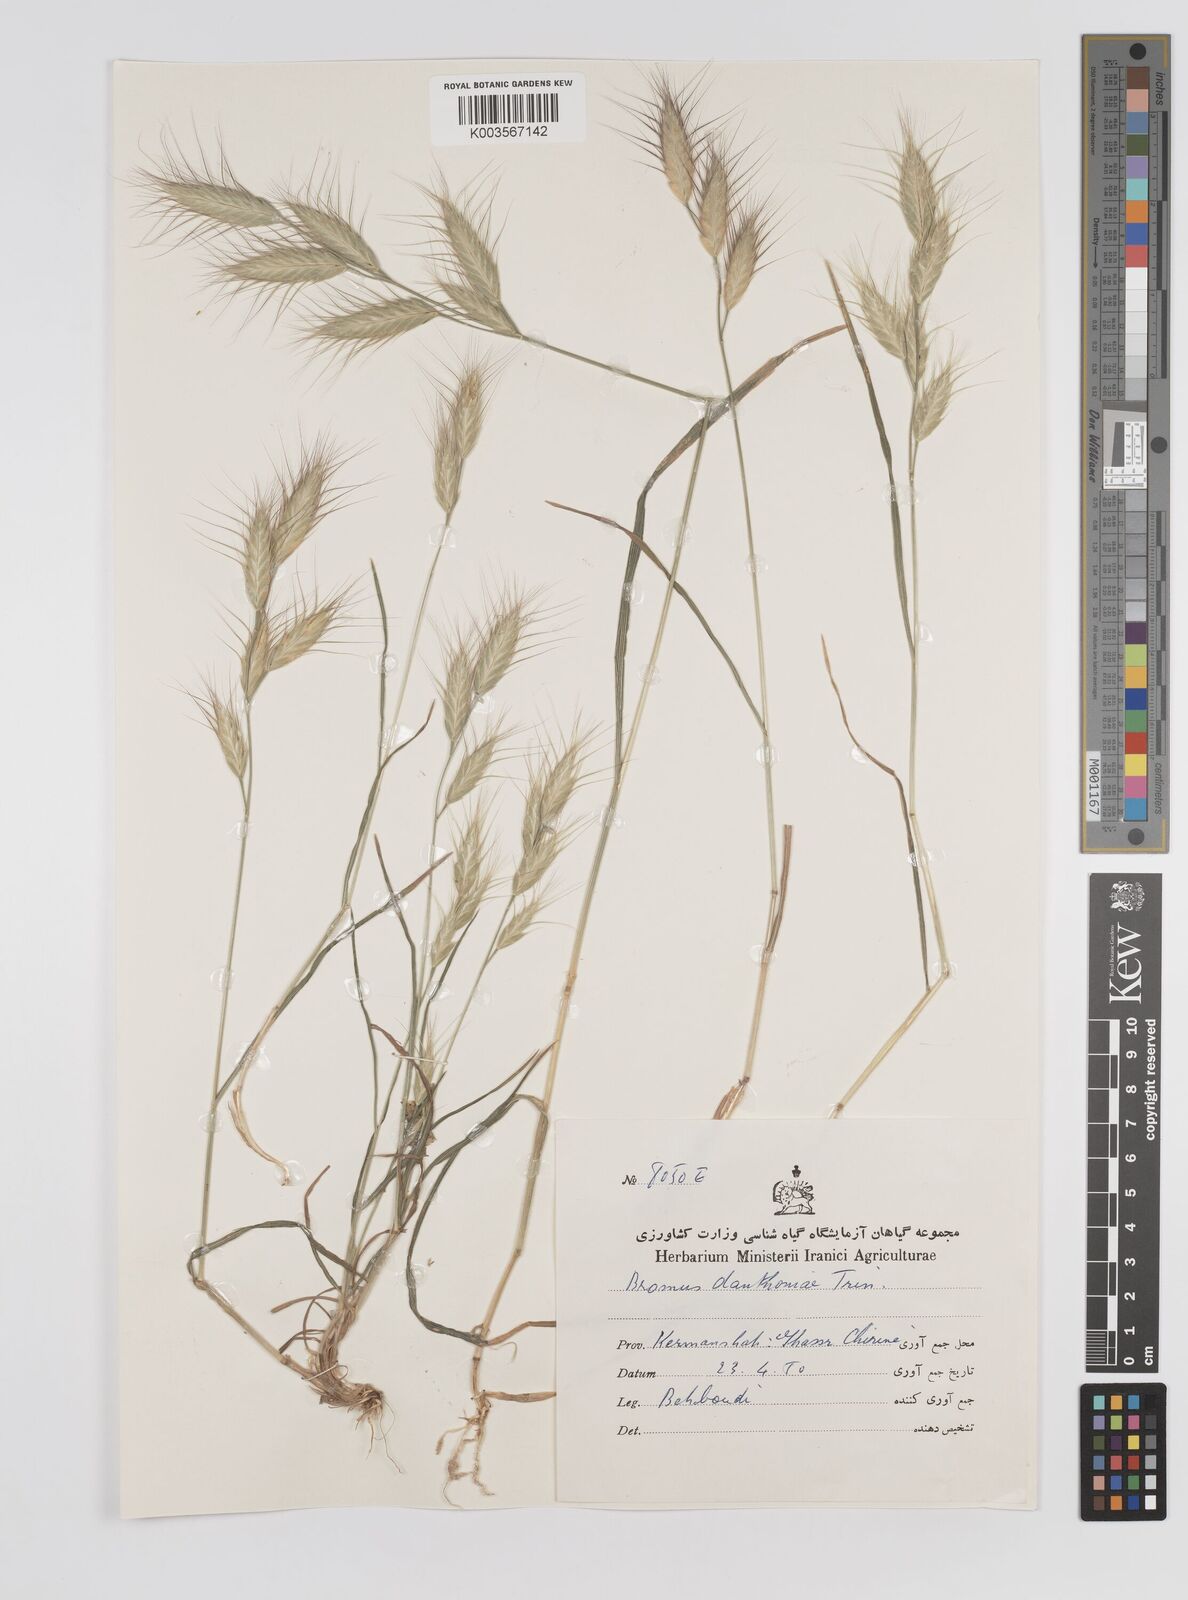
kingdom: Plantae
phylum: Tracheophyta
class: Liliopsida
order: Poales
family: Poaceae
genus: Bromus
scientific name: Bromus danthoniae
